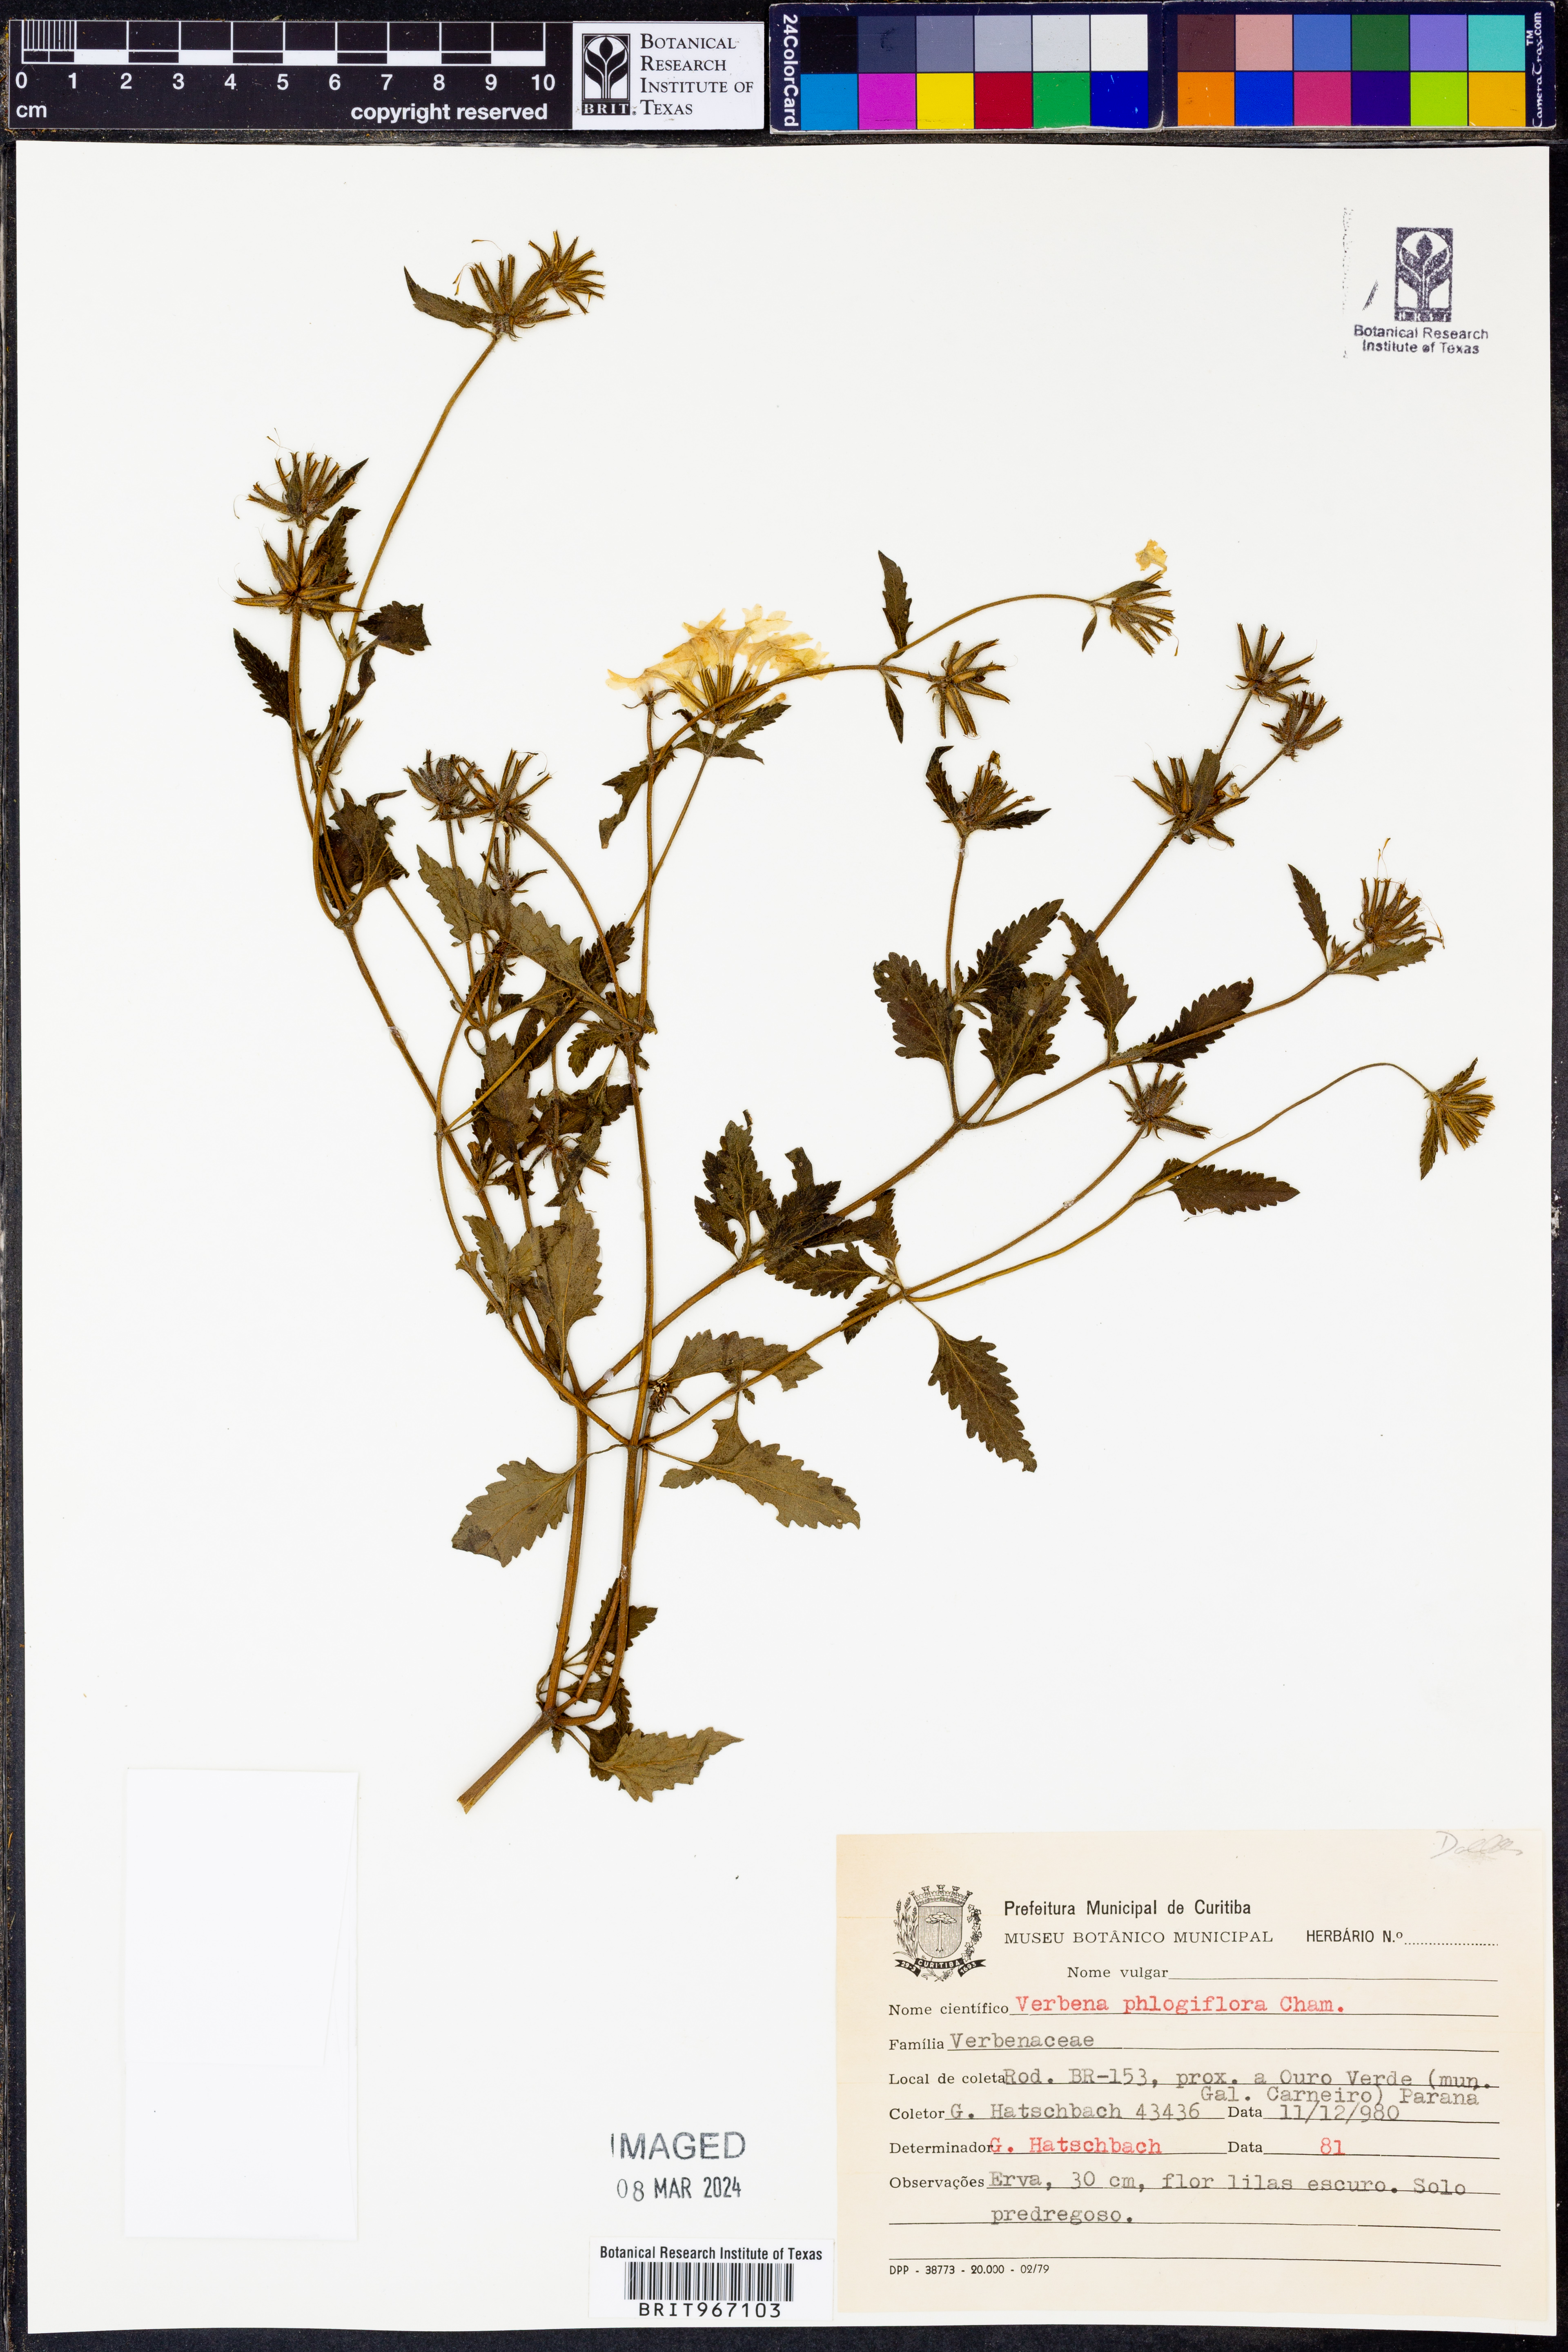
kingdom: Plantae
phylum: Tracheophyta
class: Magnoliopsida
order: Lamiales
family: Verbenaceae
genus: Verbena
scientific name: Verbena
